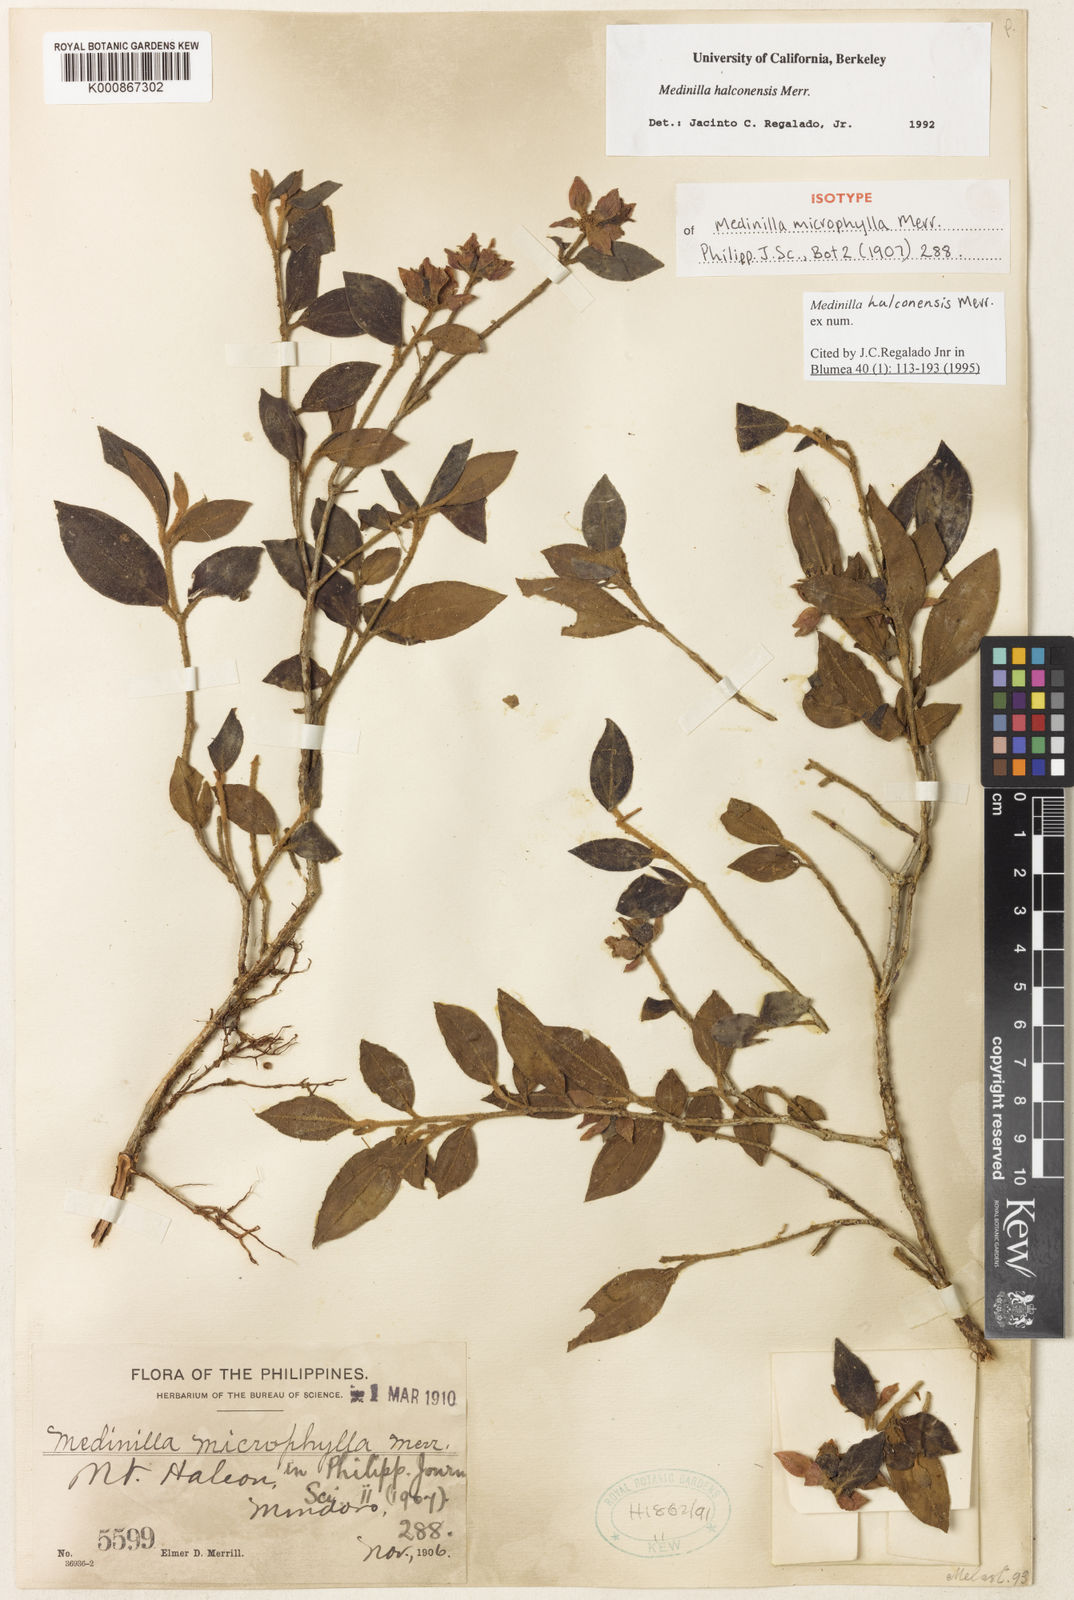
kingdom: Plantae
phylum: Tracheophyta
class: Magnoliopsida
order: Myrtales
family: Melastomataceae
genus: Medinilla
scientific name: Medinilla halconensis
